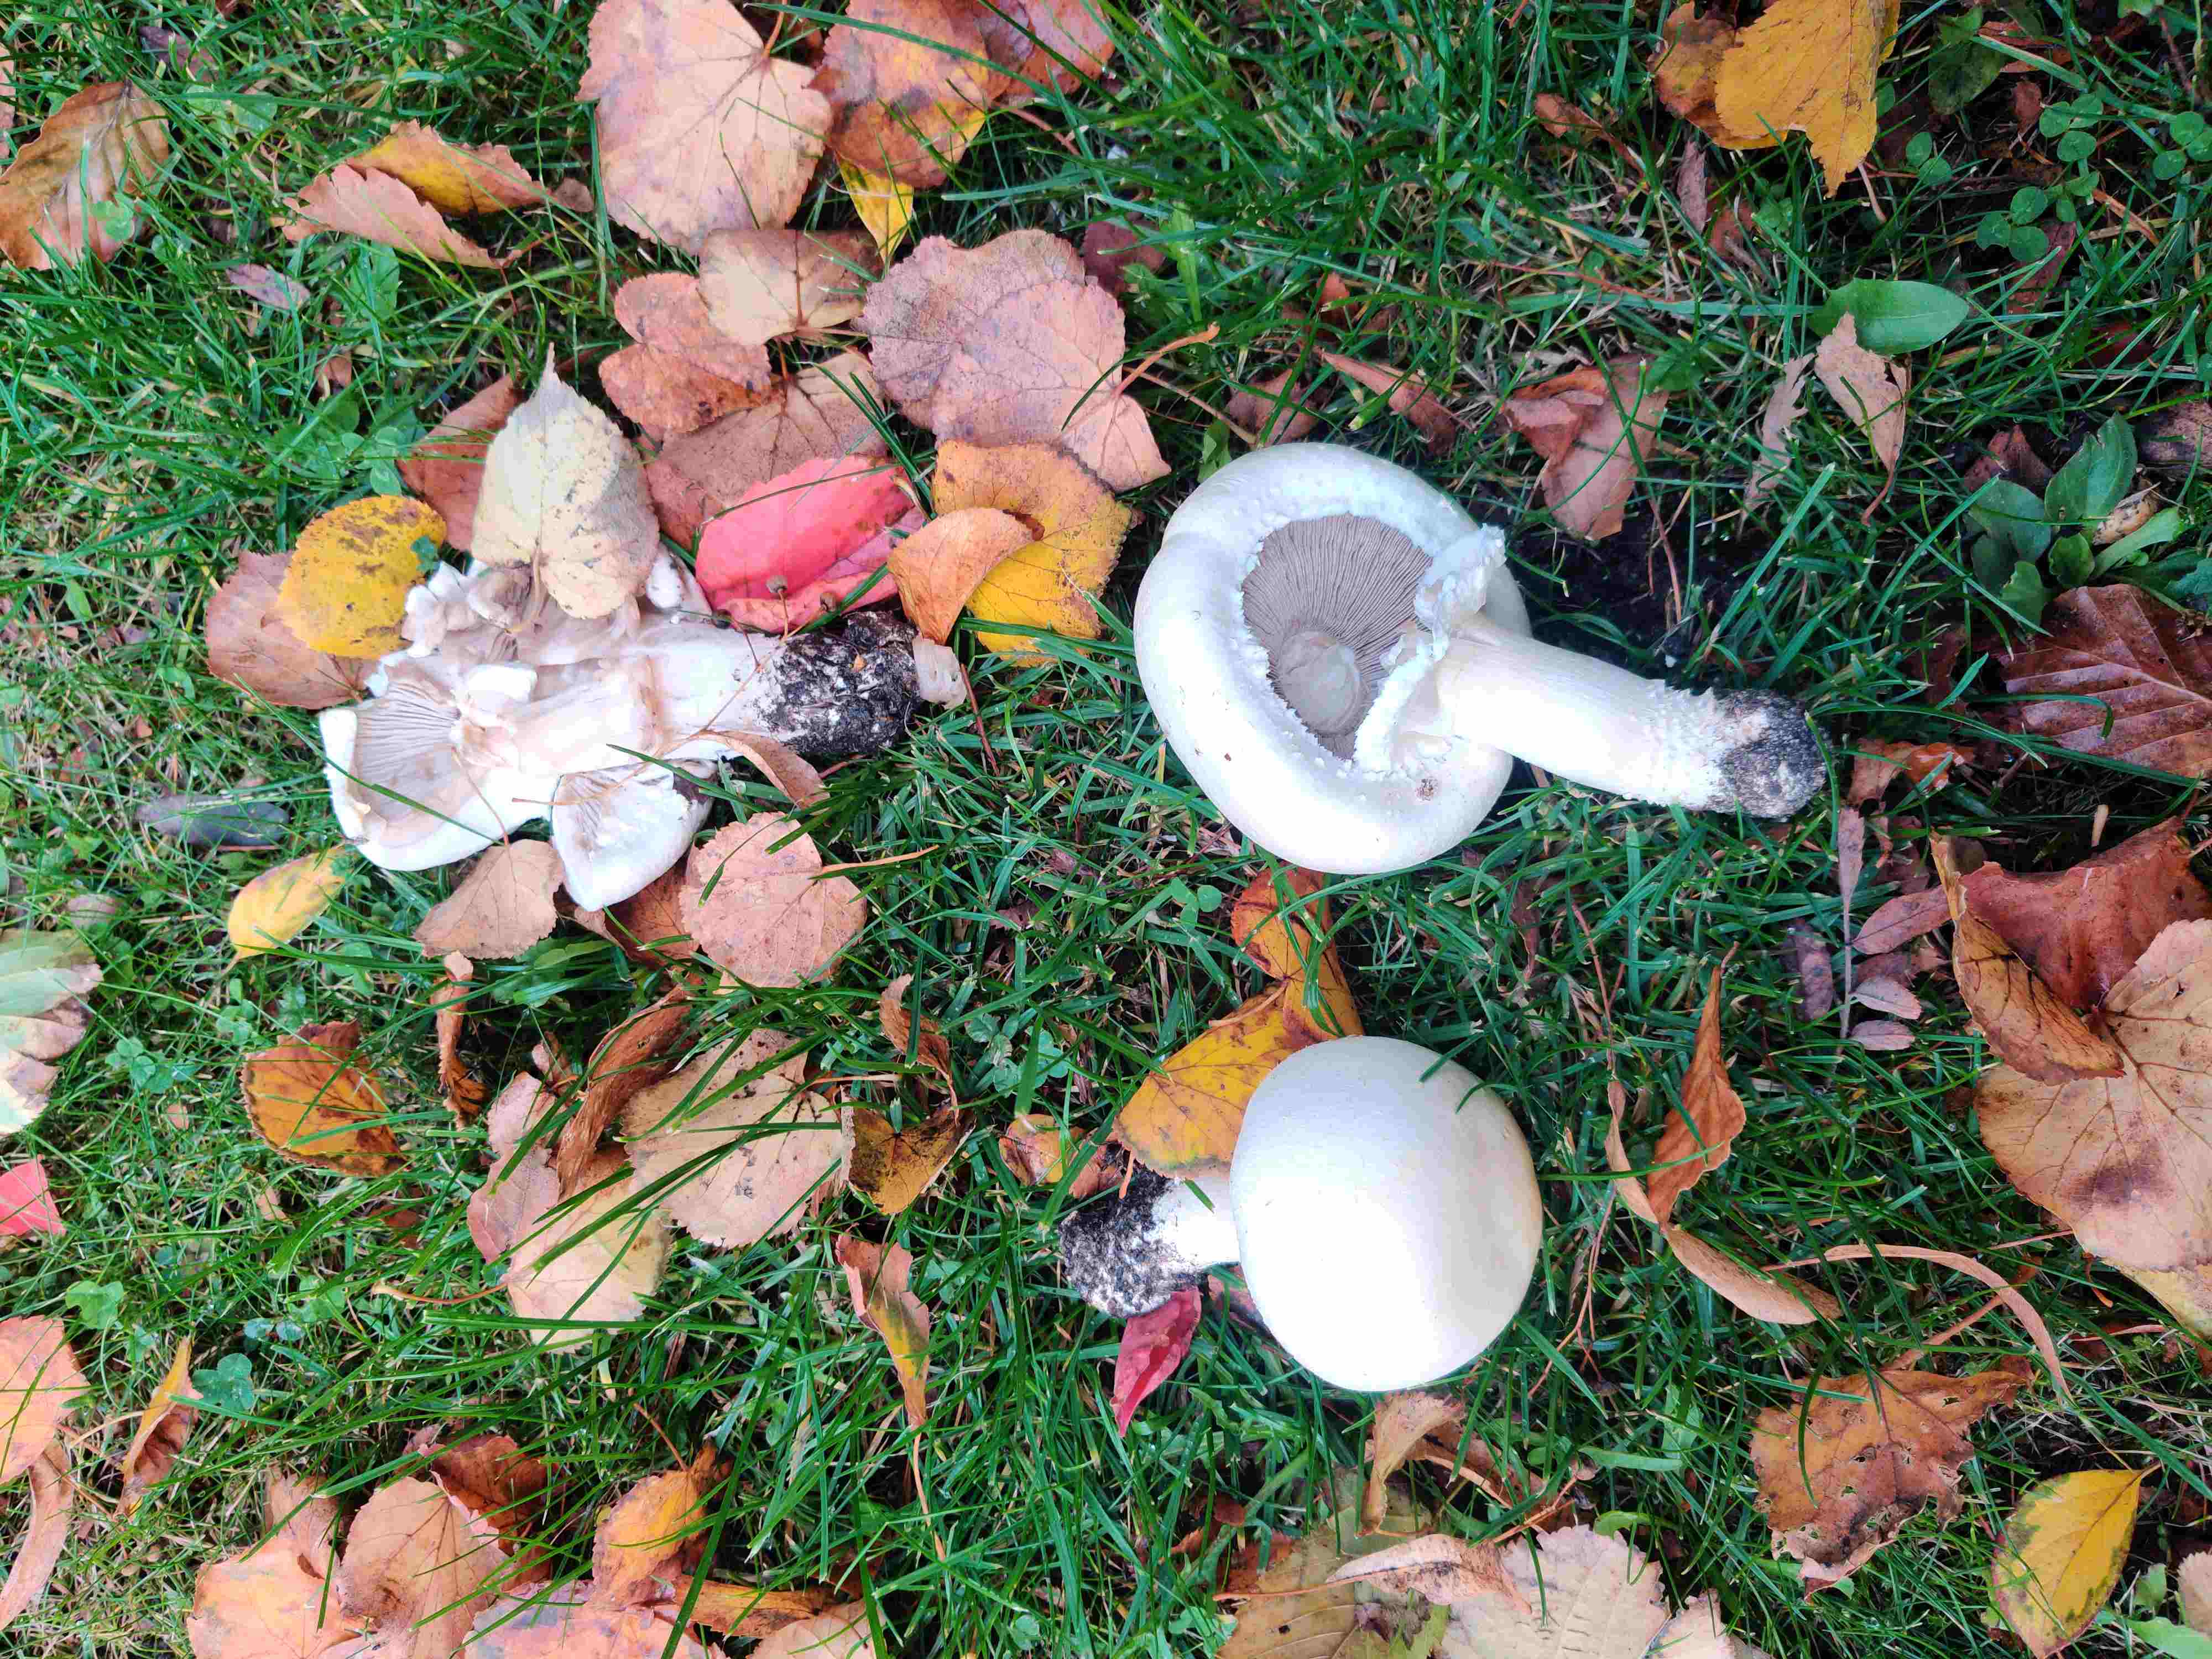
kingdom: Fungi
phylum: Basidiomycota
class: Agaricomycetes
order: Agaricales
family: Agaricaceae
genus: Agaricus
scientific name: Agaricus
